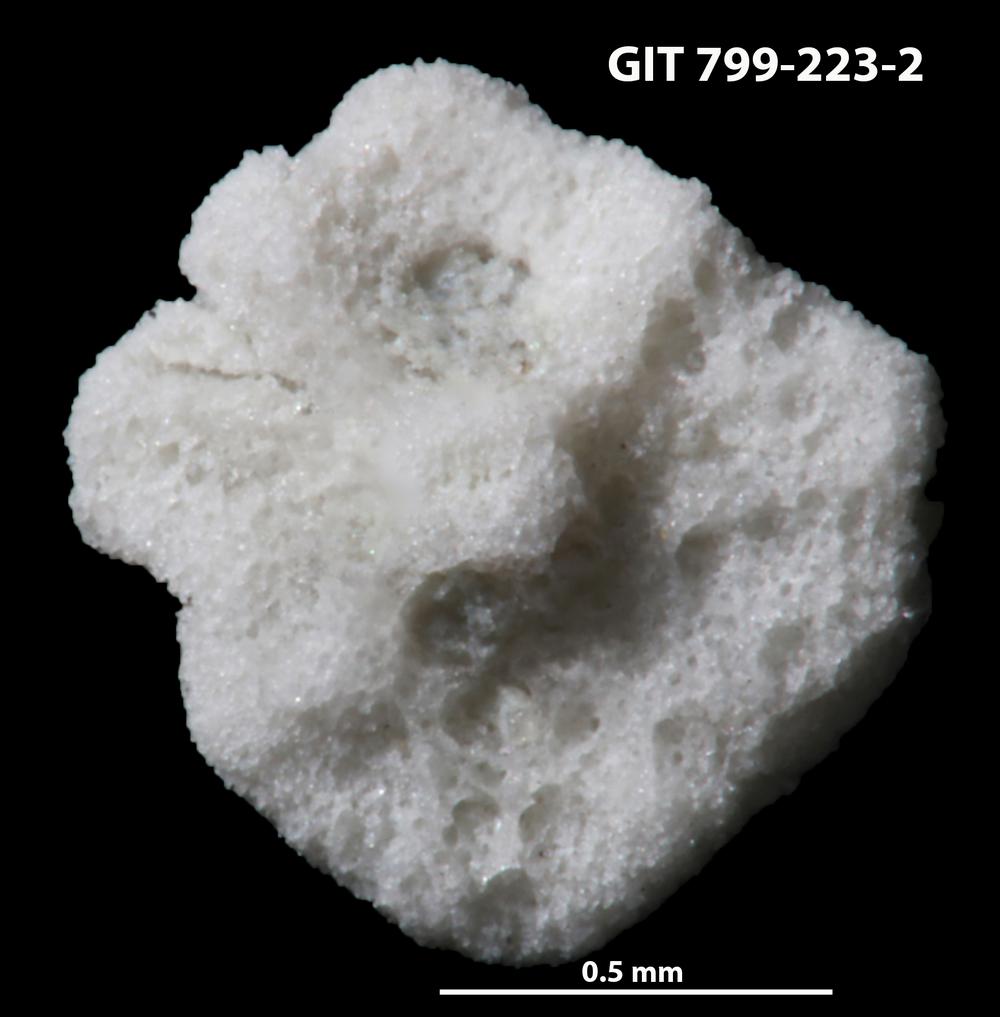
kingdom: Animalia
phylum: Echinodermata
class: Echinoidea
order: Bothriocidaroida
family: Bothriocidaridae
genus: Neobothriocidaris
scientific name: Neobothriocidaris
